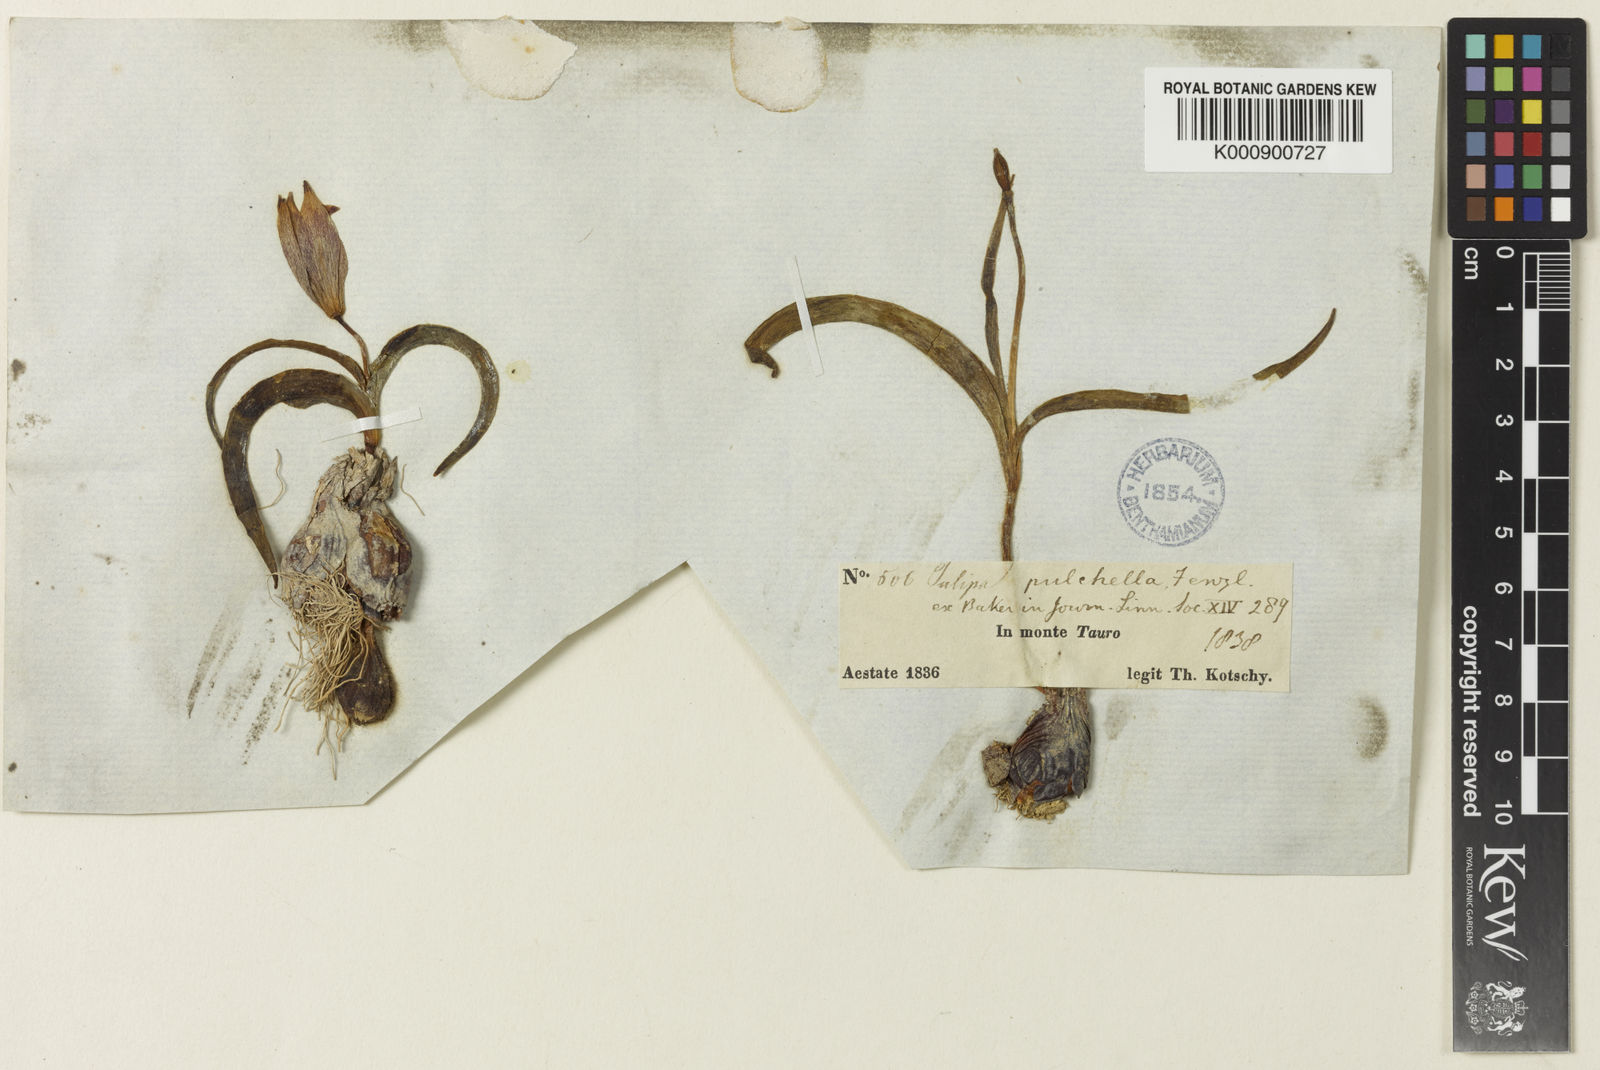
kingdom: Plantae
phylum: Tracheophyta
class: Liliopsida
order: Liliales
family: Liliaceae
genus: Tulipa
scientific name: Tulipa humilis
